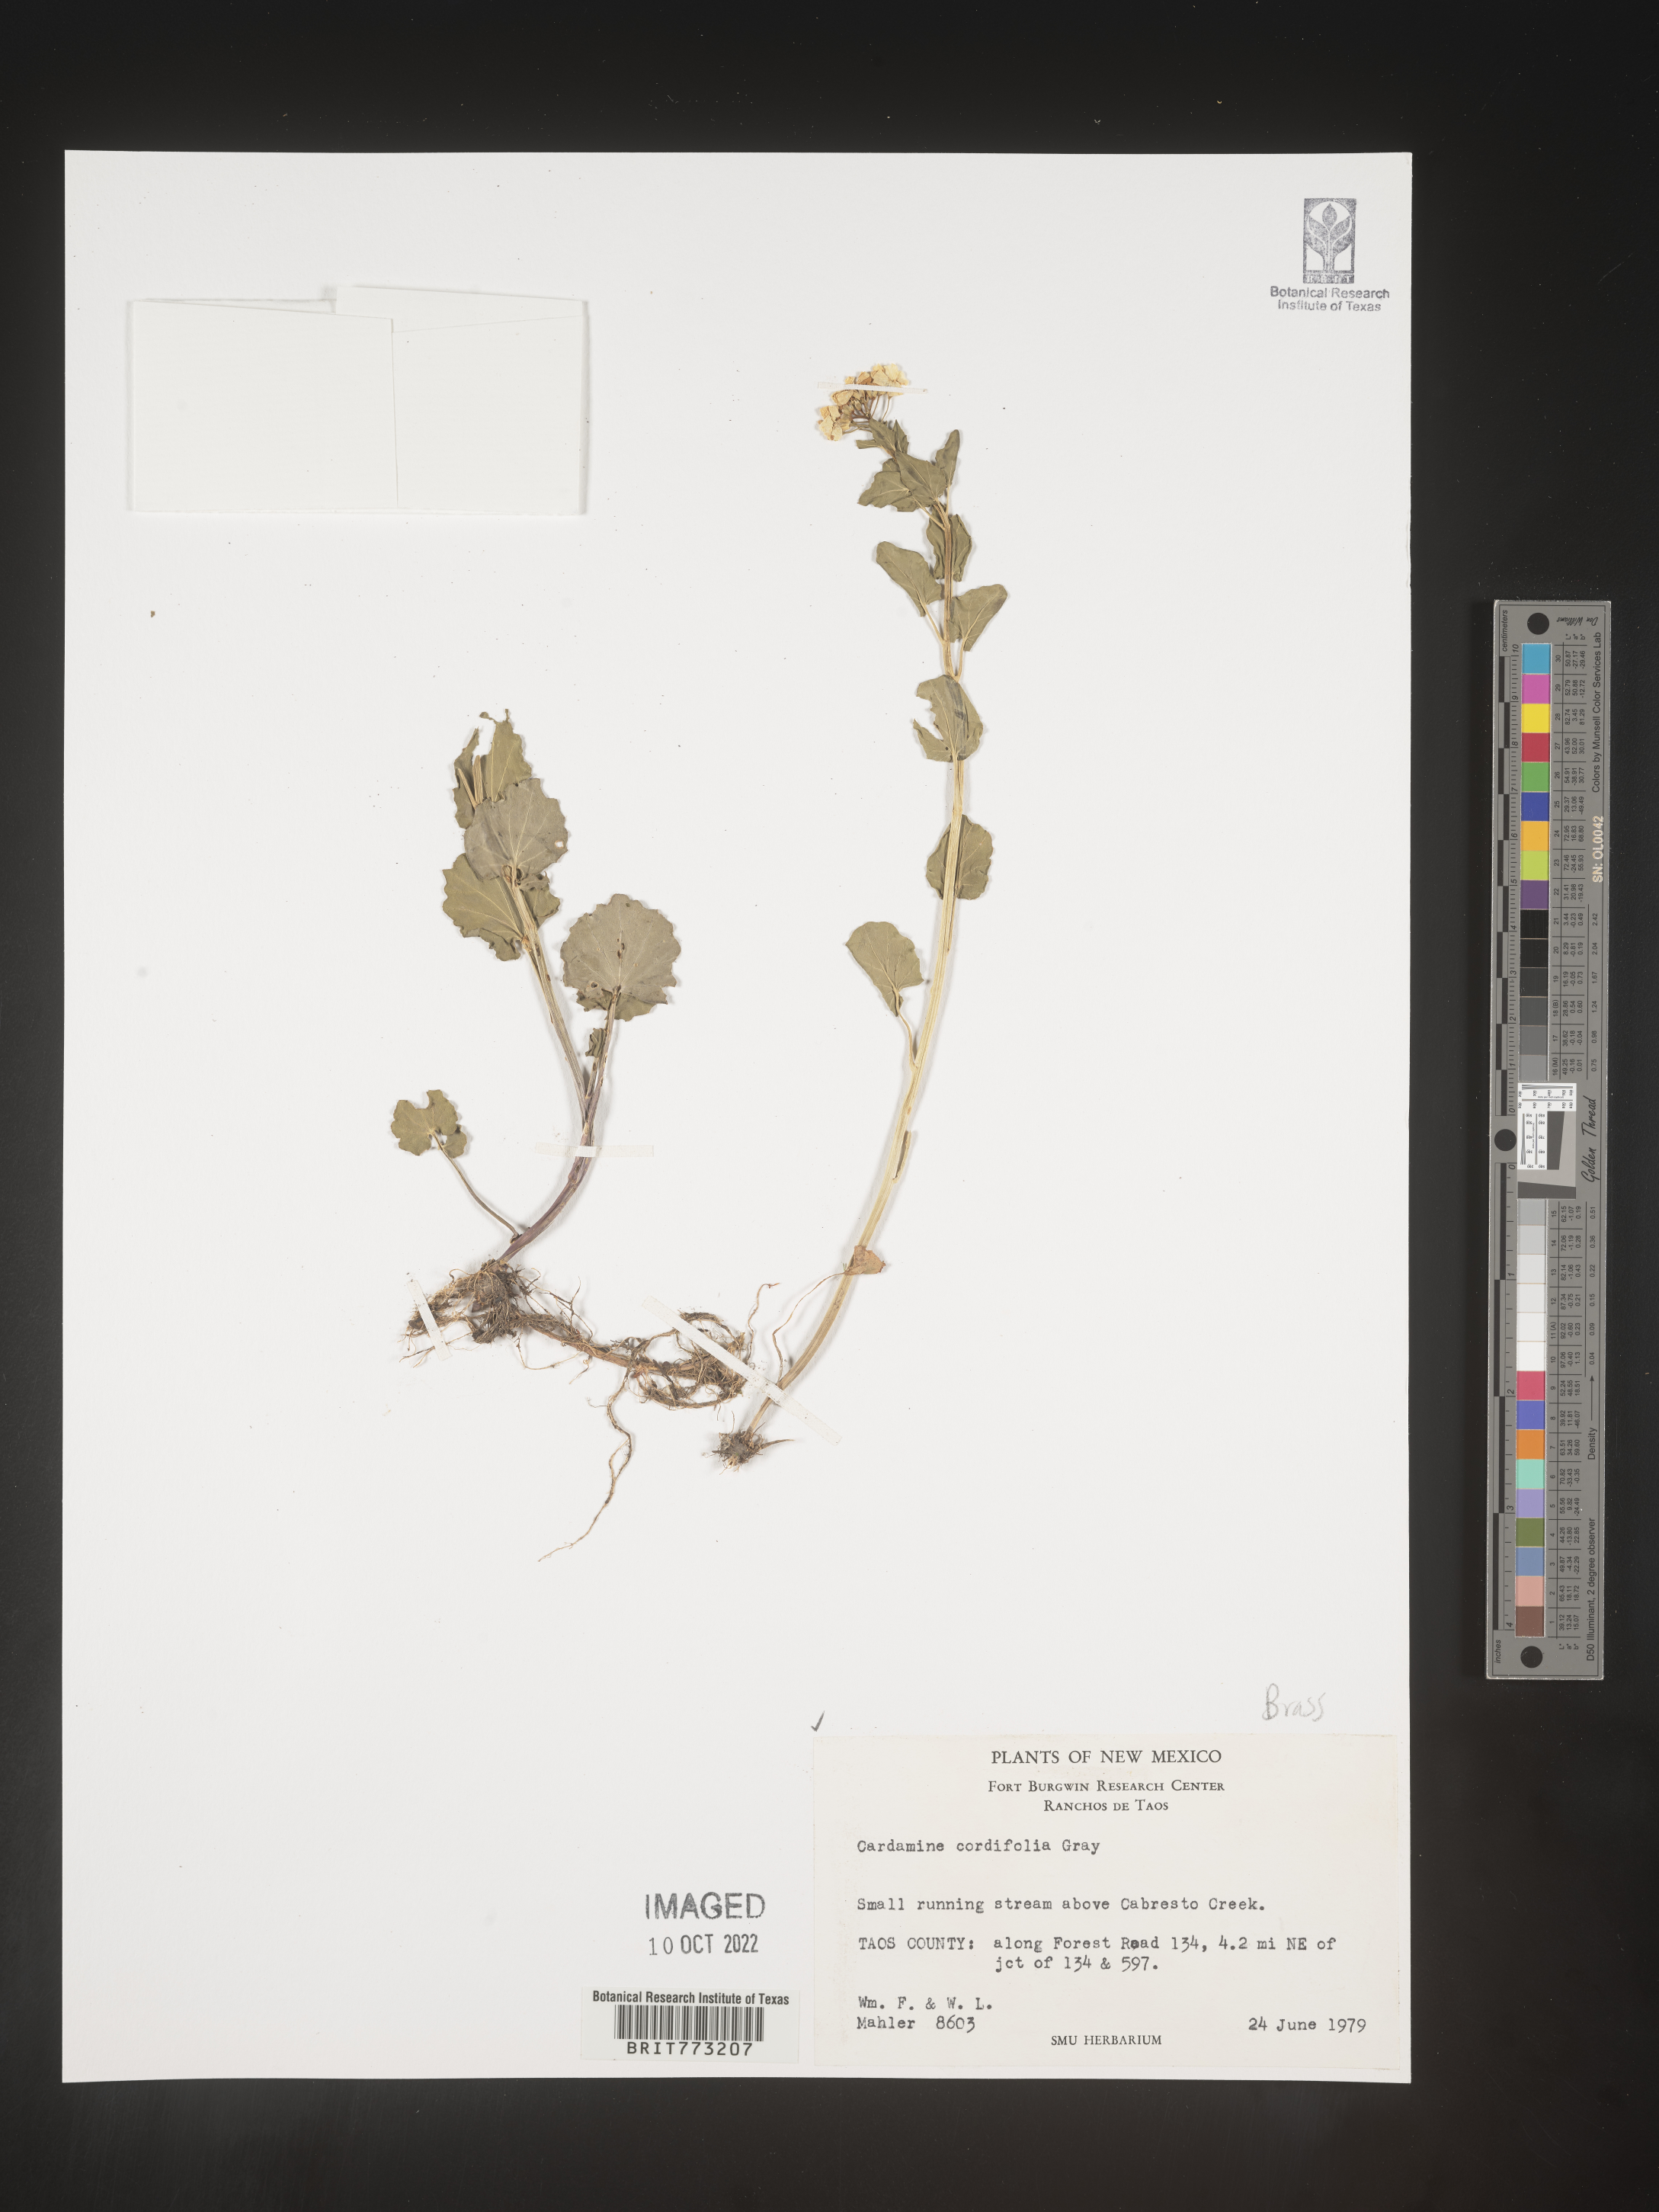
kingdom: Plantae
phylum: Tracheophyta
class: Magnoliopsida
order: Brassicales
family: Brassicaceae
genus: Cardamine
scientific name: Cardamine
